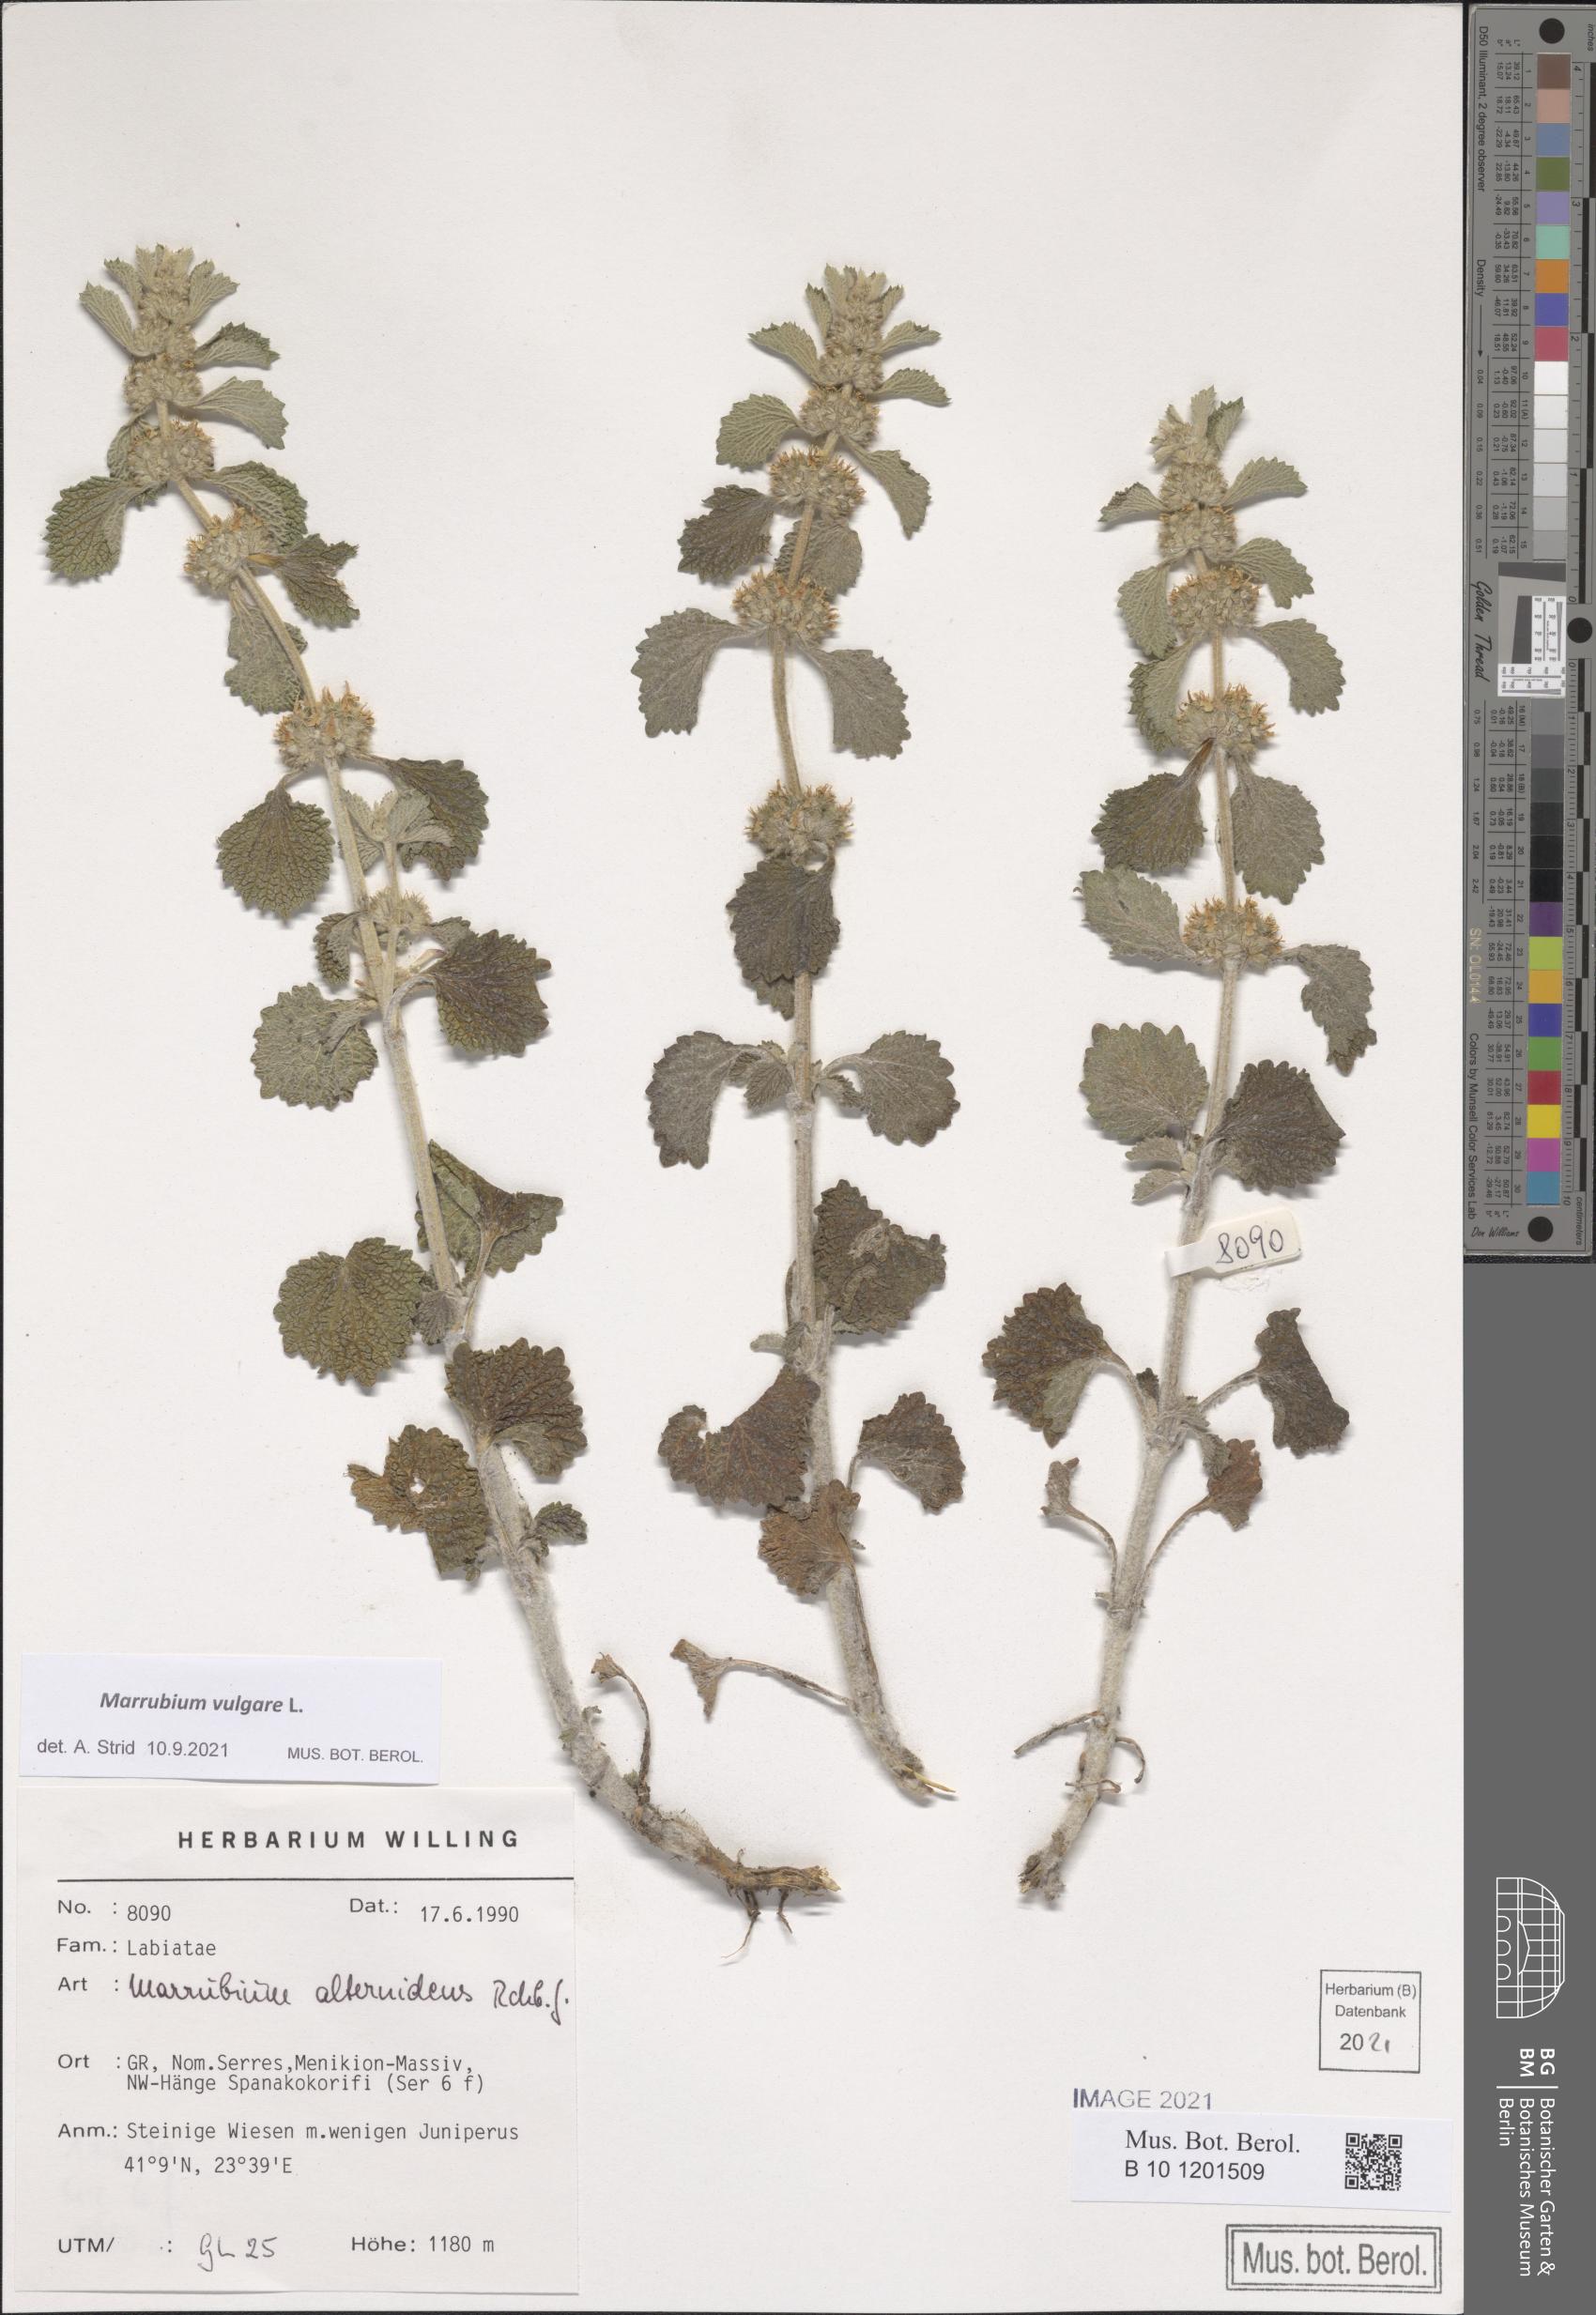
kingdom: Plantae
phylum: Tracheophyta
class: Magnoliopsida
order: Lamiales
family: Lamiaceae
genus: Marrubium
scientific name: Marrubium vulgare
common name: Horehound
